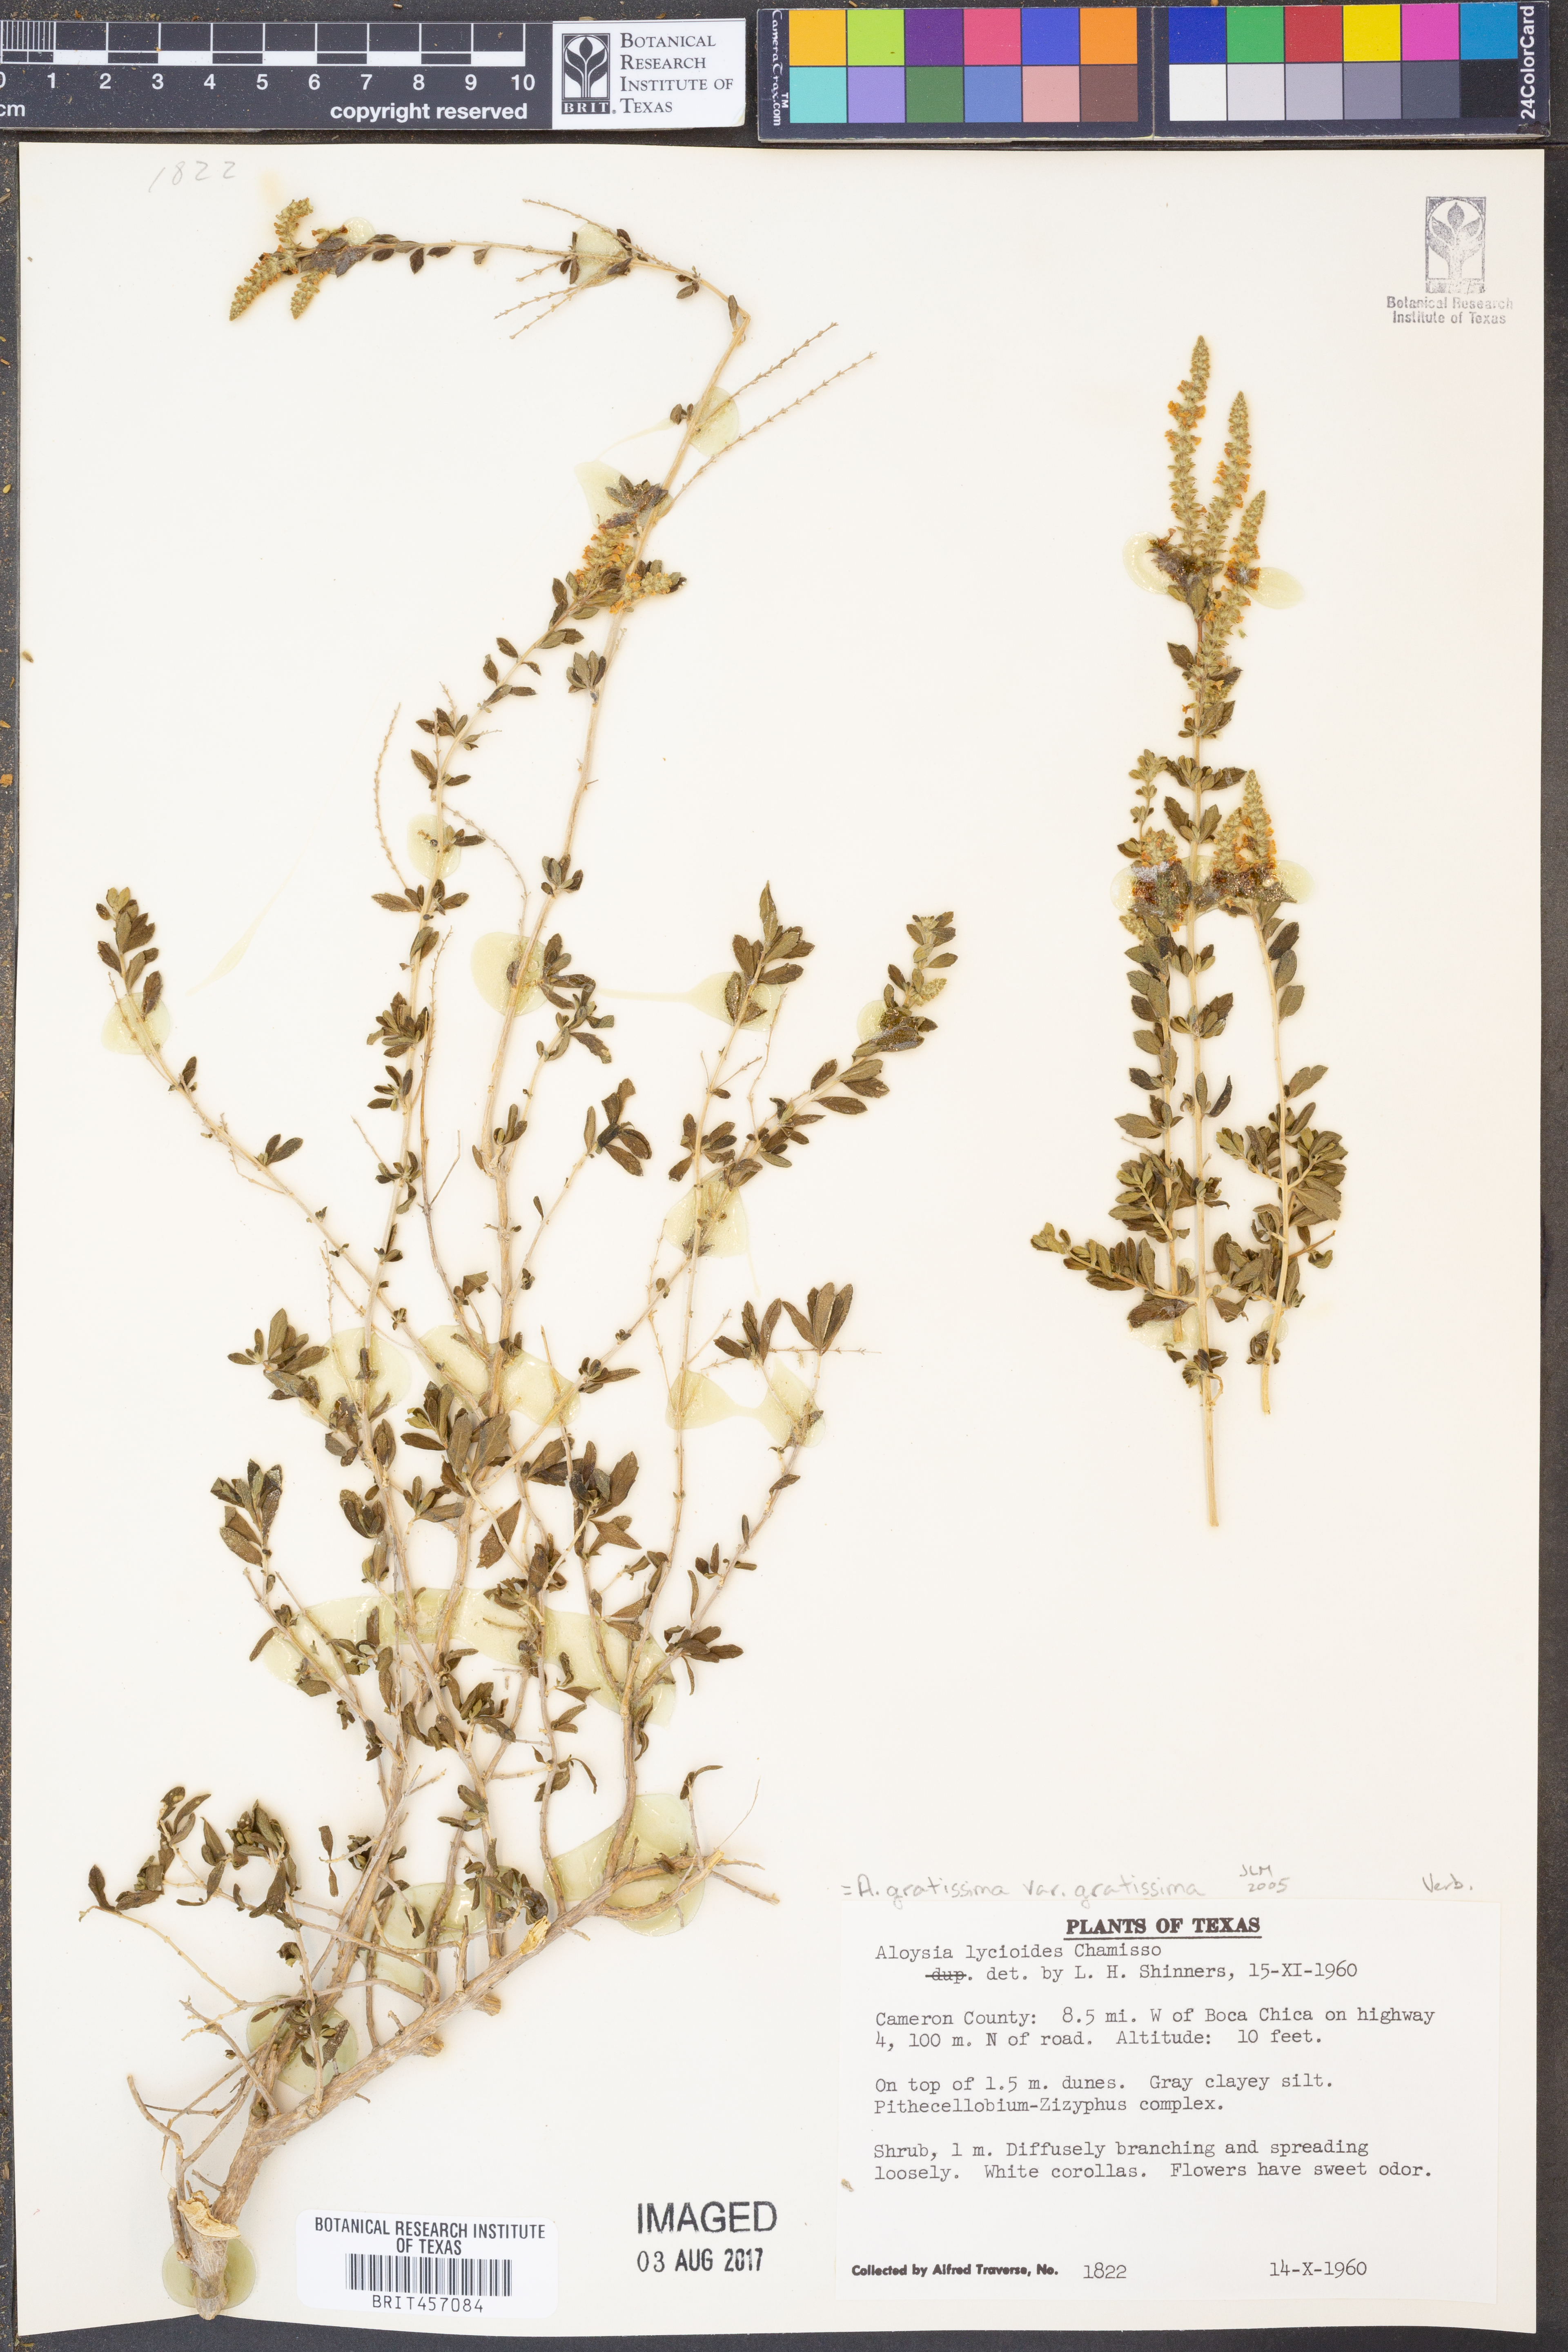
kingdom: Plantae
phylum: Tracheophyta
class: Magnoliopsida
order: Lamiales
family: Verbenaceae
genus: Aloysia
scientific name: Aloysia gratissima
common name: Common bee-brush
